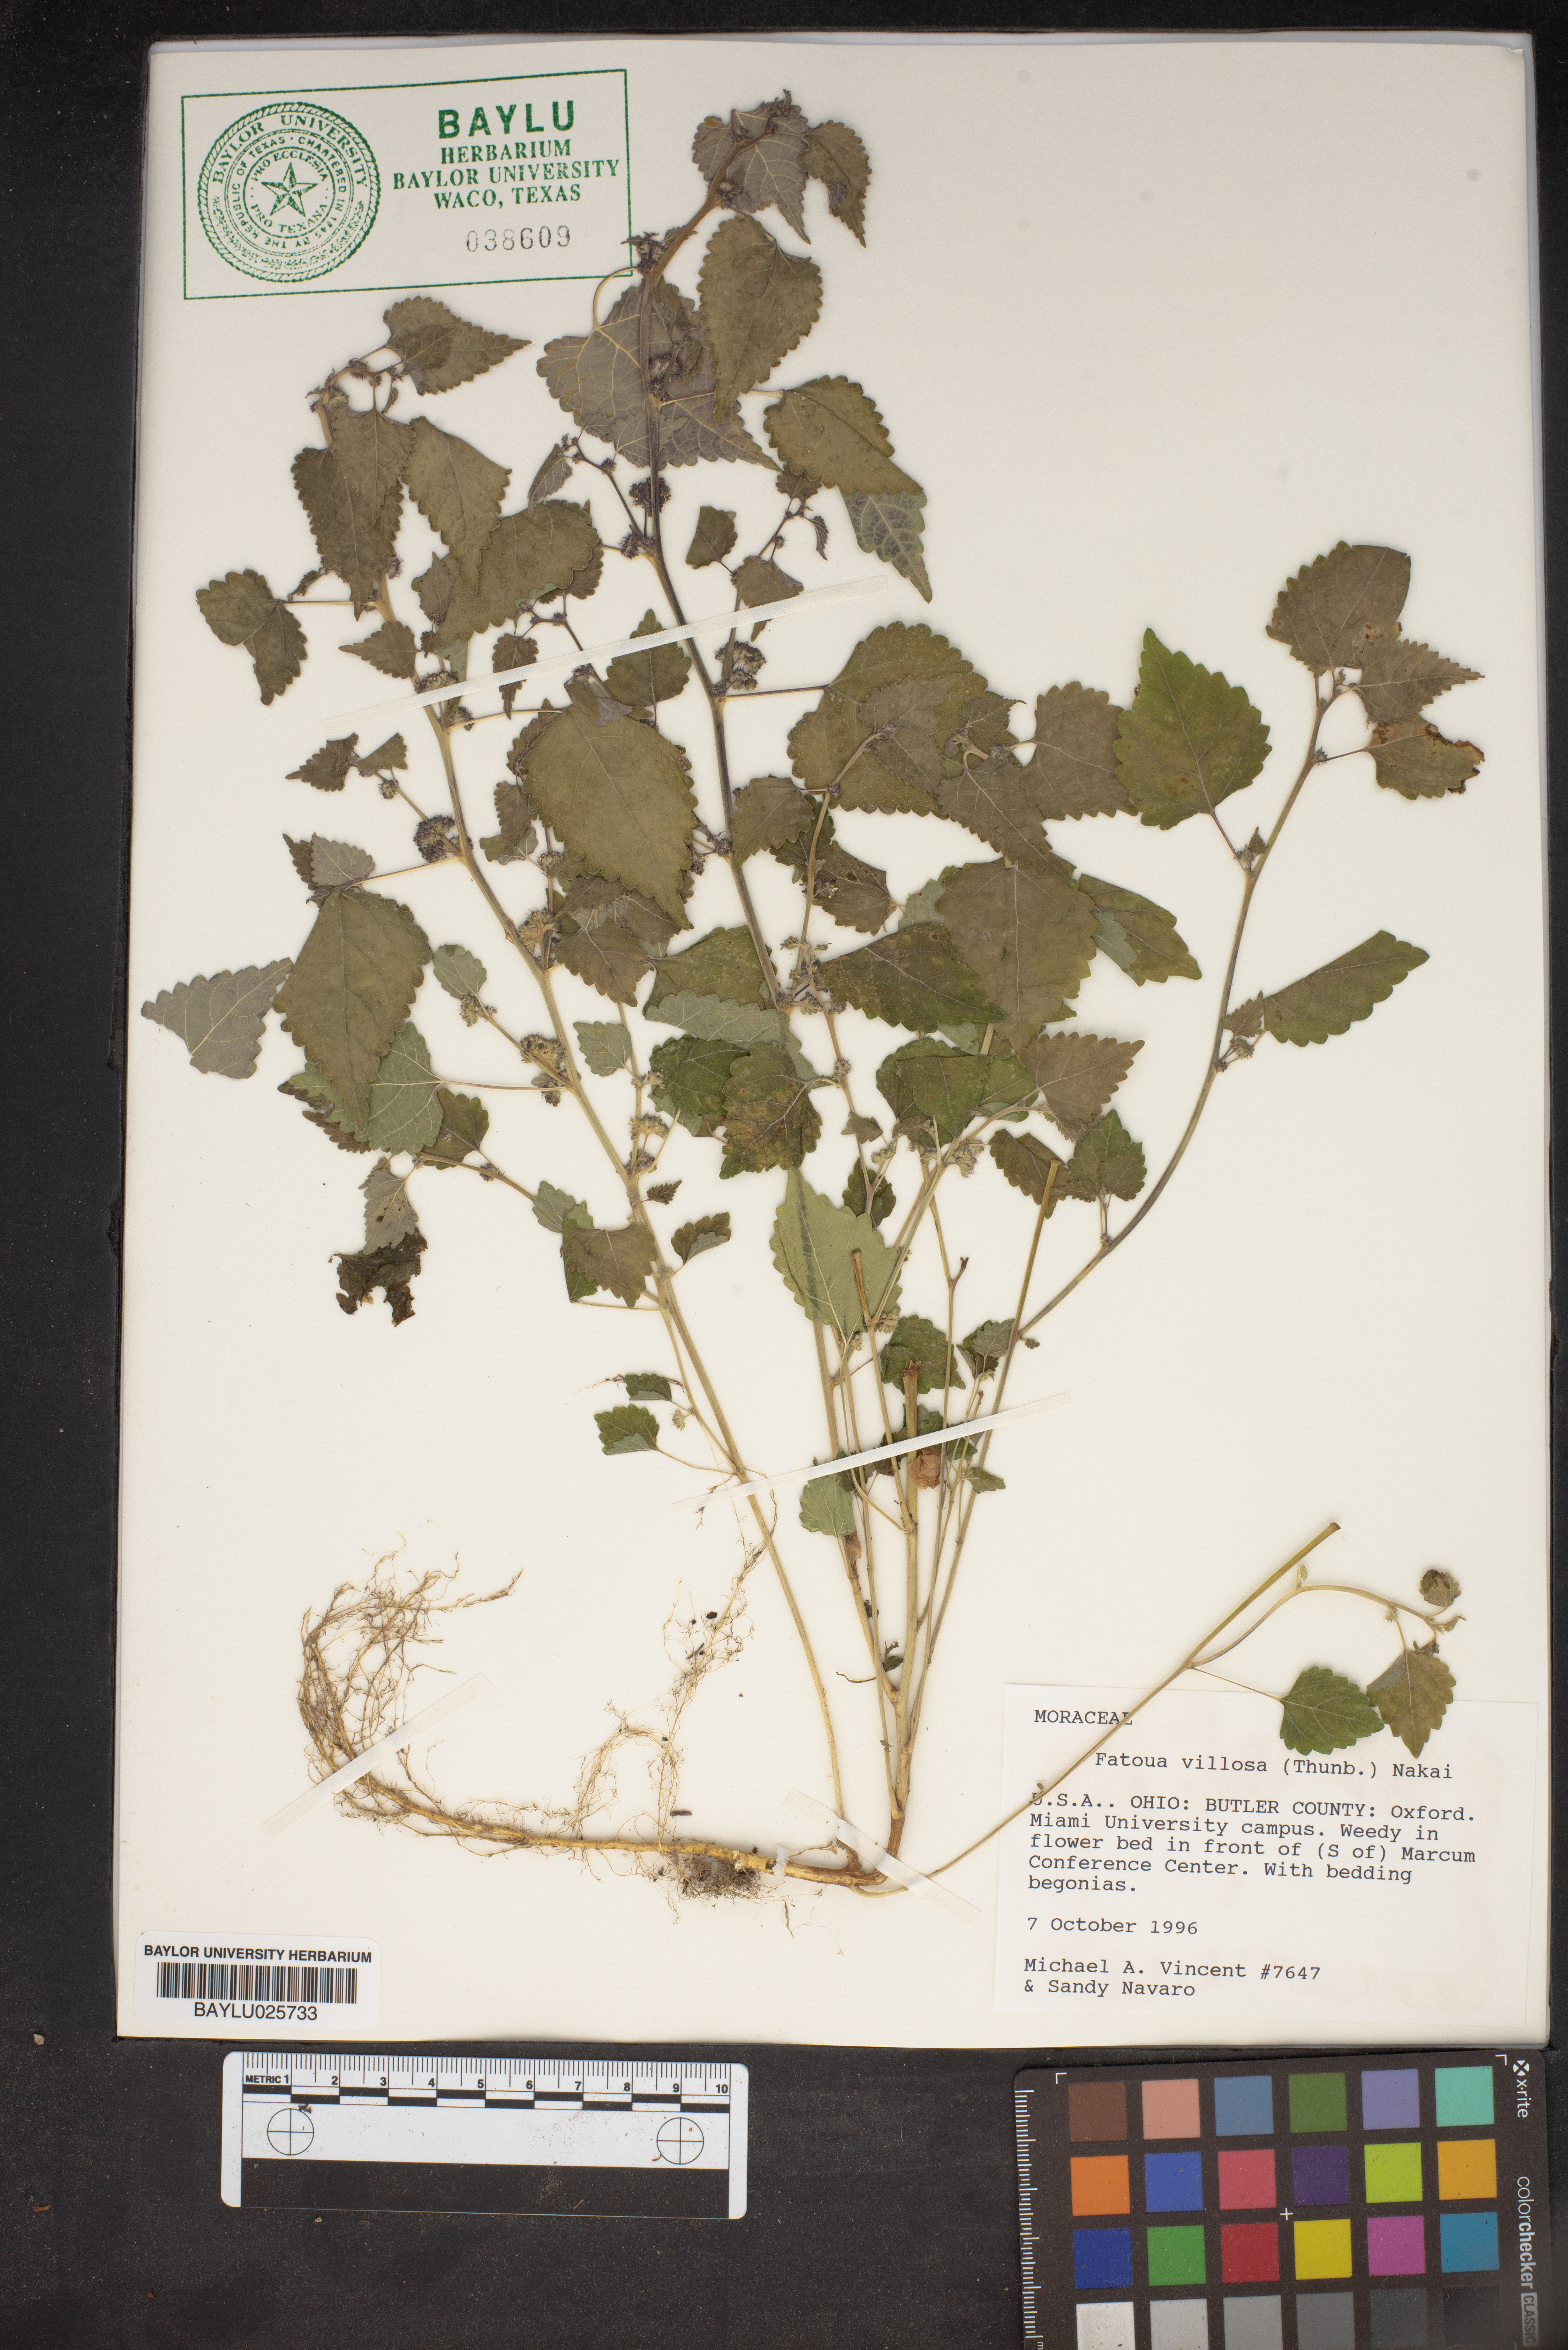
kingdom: Plantae
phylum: Tracheophyta
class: Magnoliopsida
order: Rosales
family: Moraceae
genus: Fatoua
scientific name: Fatoua villosa
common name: Hairy crabweed
